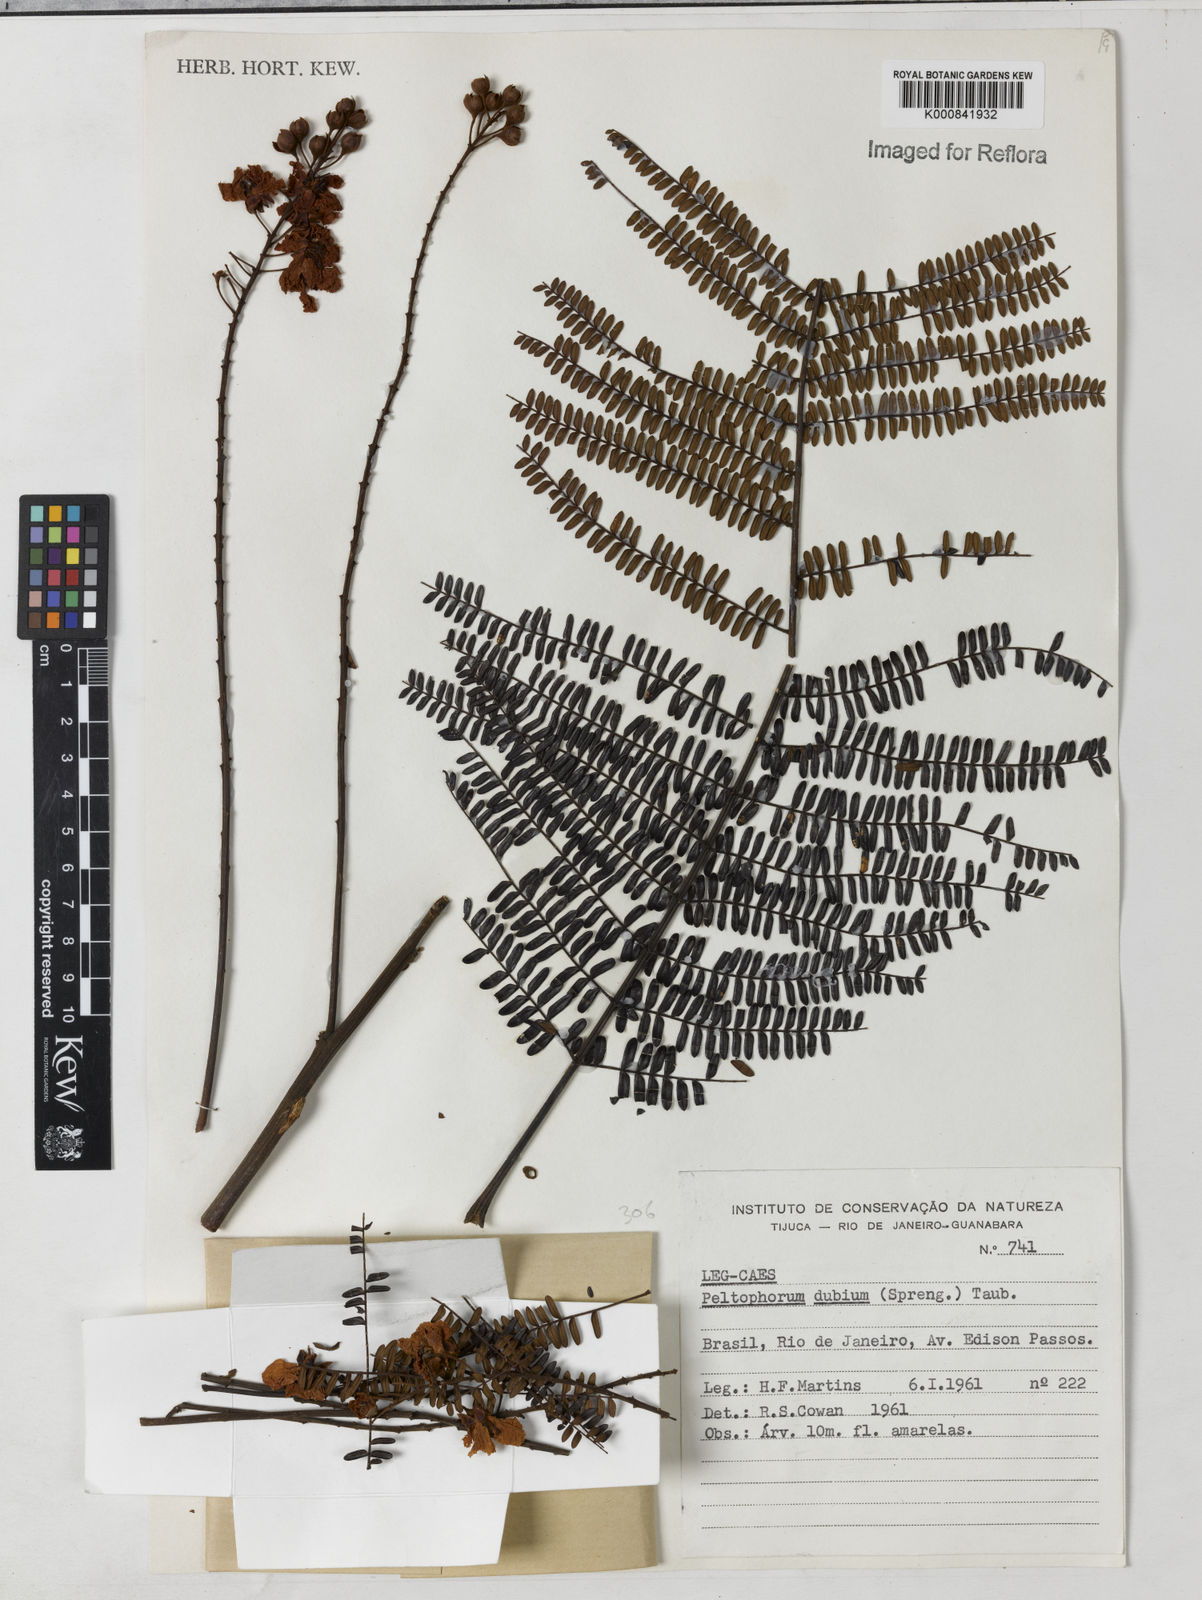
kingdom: Plantae
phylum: Tracheophyta
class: Magnoliopsida
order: Fabales
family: Fabaceae
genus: Peltophorum
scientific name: Peltophorum dubium
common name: Horsebush
